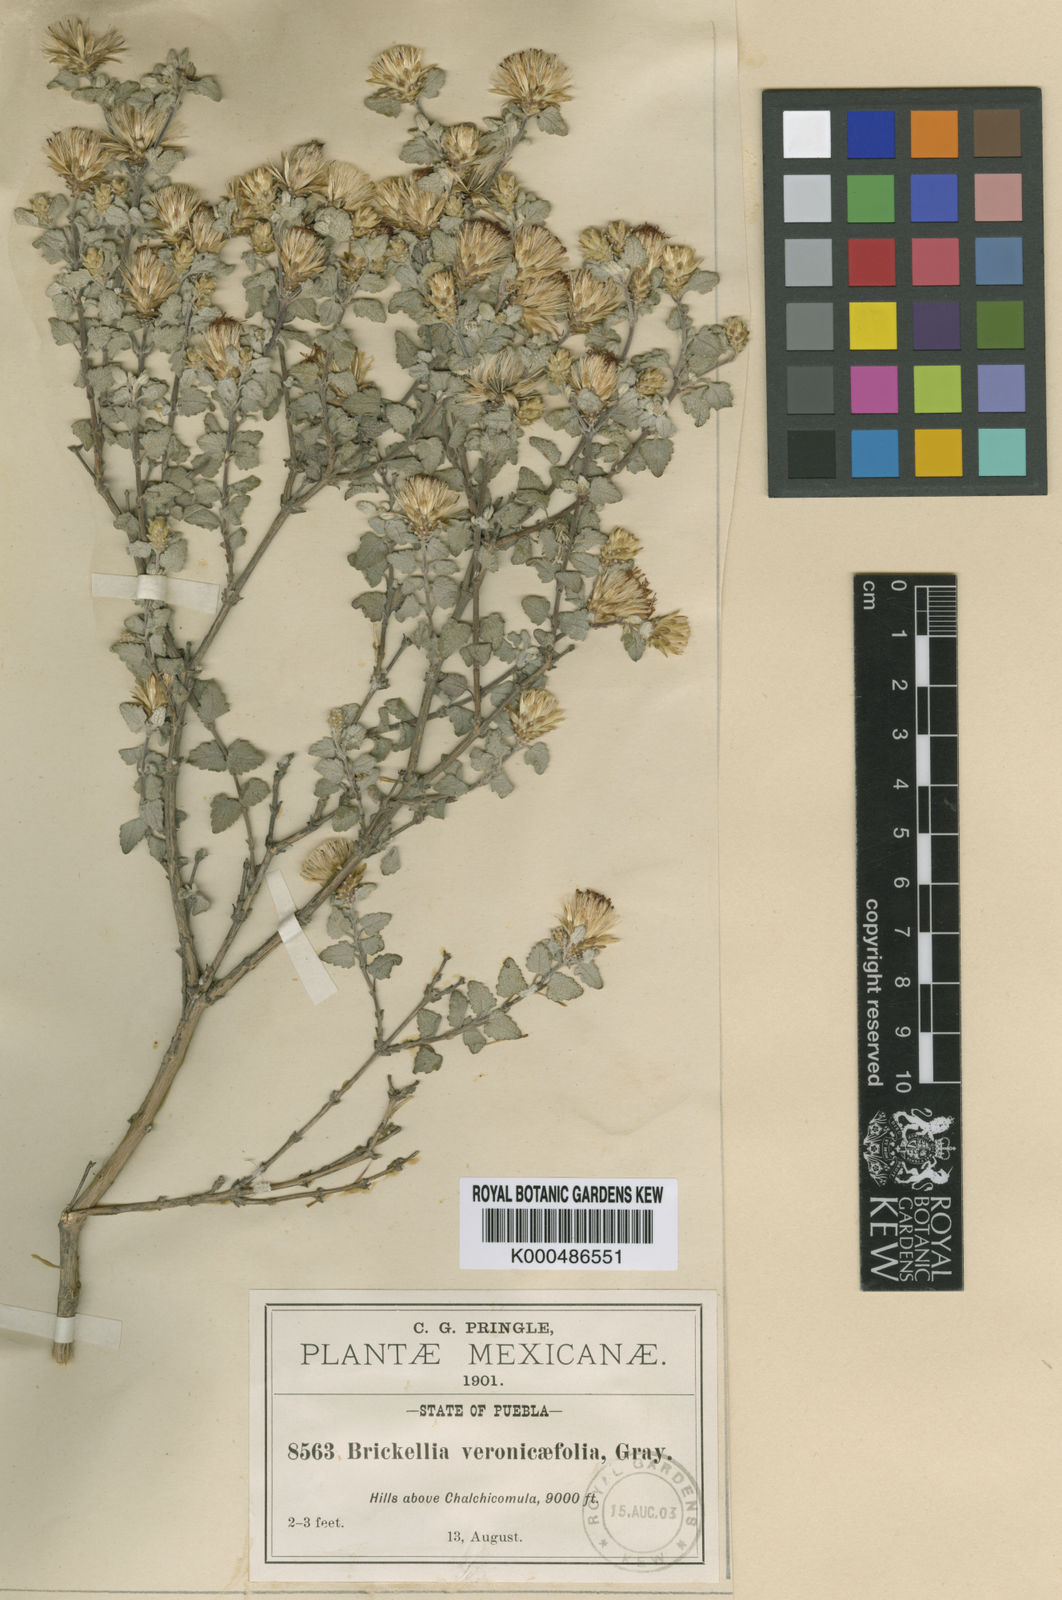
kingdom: Plantae
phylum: Tracheophyta
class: Magnoliopsida
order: Asterales
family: Asteraceae
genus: Brickellia
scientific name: Brickellia veronicifolia
